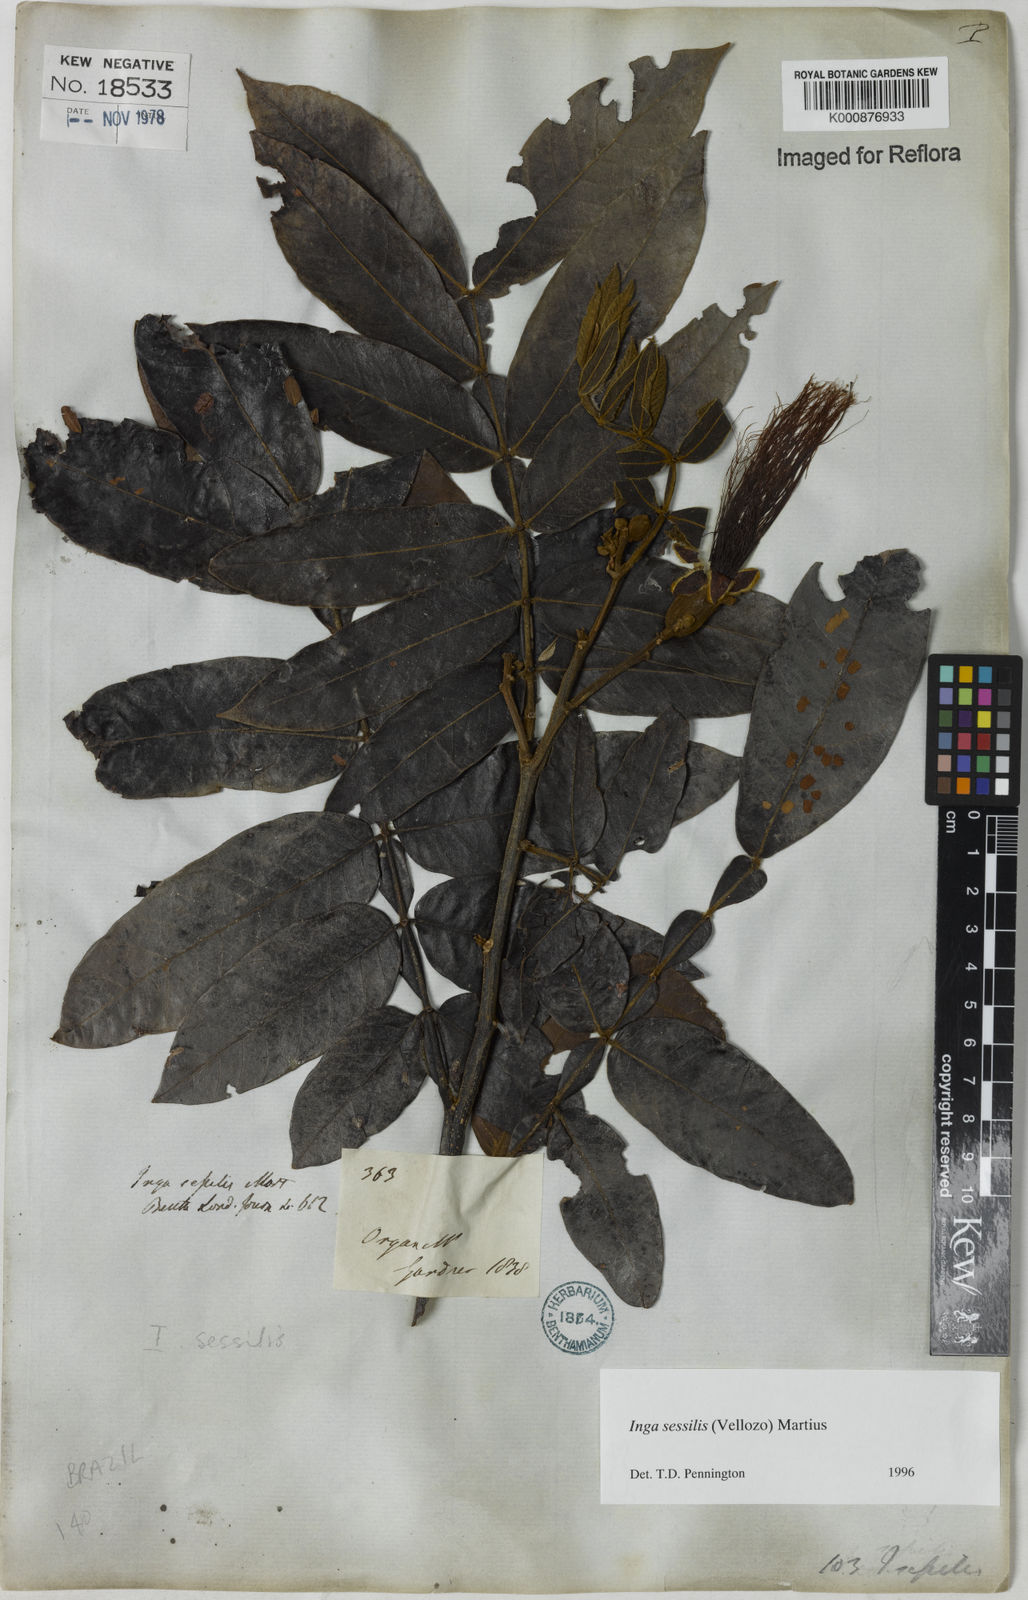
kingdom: Plantae
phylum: Tracheophyta
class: Magnoliopsida
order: Fabales
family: Fabaceae
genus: Inga
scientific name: Inga sessilis
